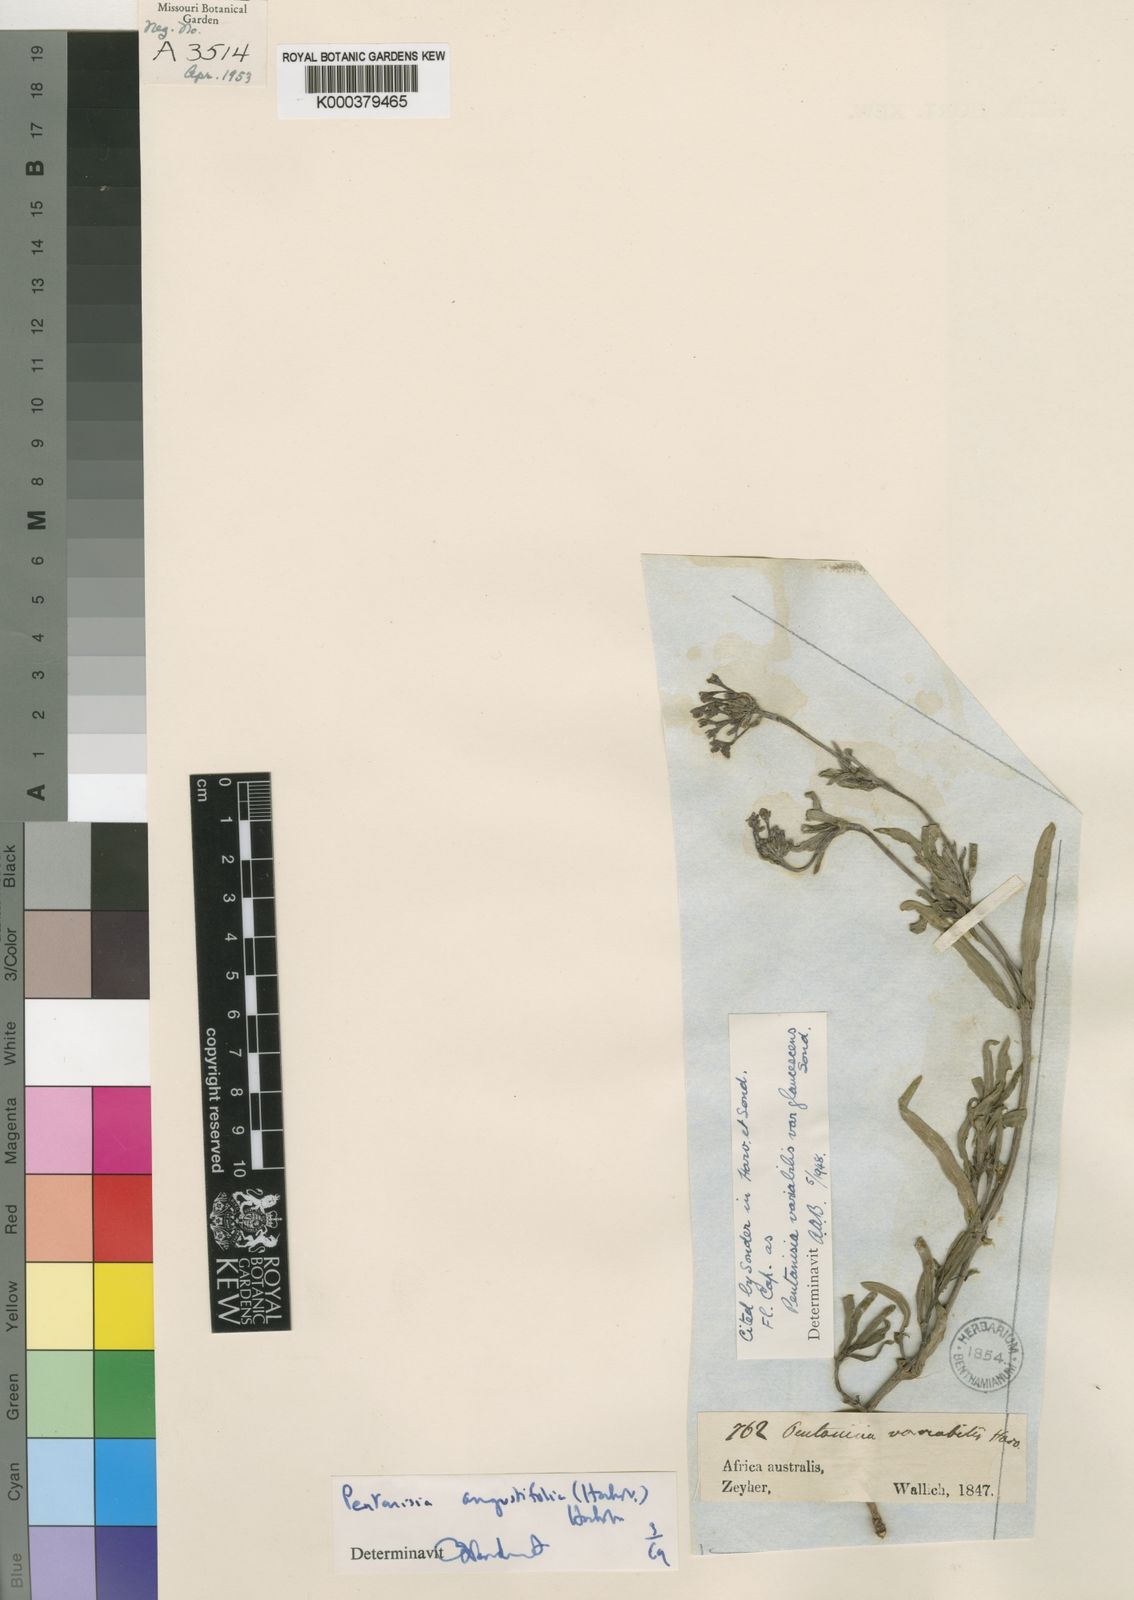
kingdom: Plantae
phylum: Tracheophyta
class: Magnoliopsida
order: Gentianales
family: Rubiaceae
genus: Pentanisia
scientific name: Pentanisia angustifolia
